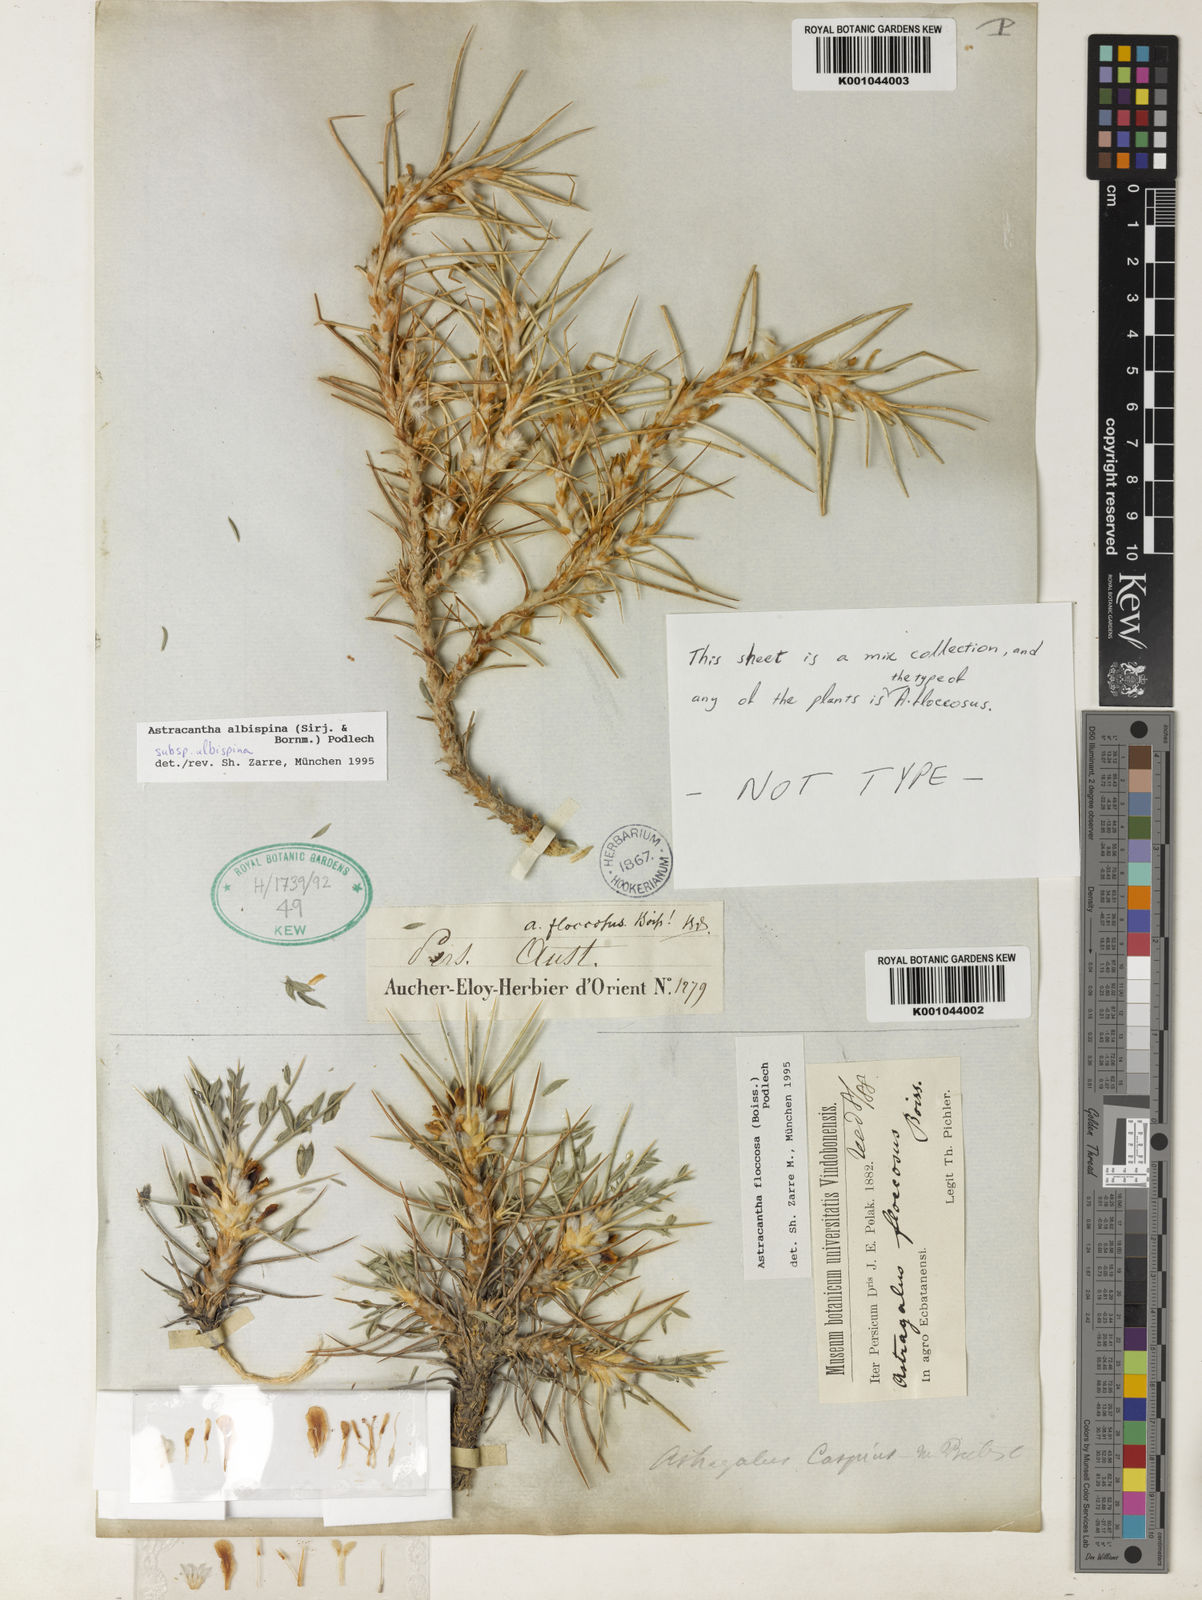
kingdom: Plantae
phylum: Tracheophyta
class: Magnoliopsida
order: Fabales
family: Fabaceae
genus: Astragalus
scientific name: Astragalus albispinus
